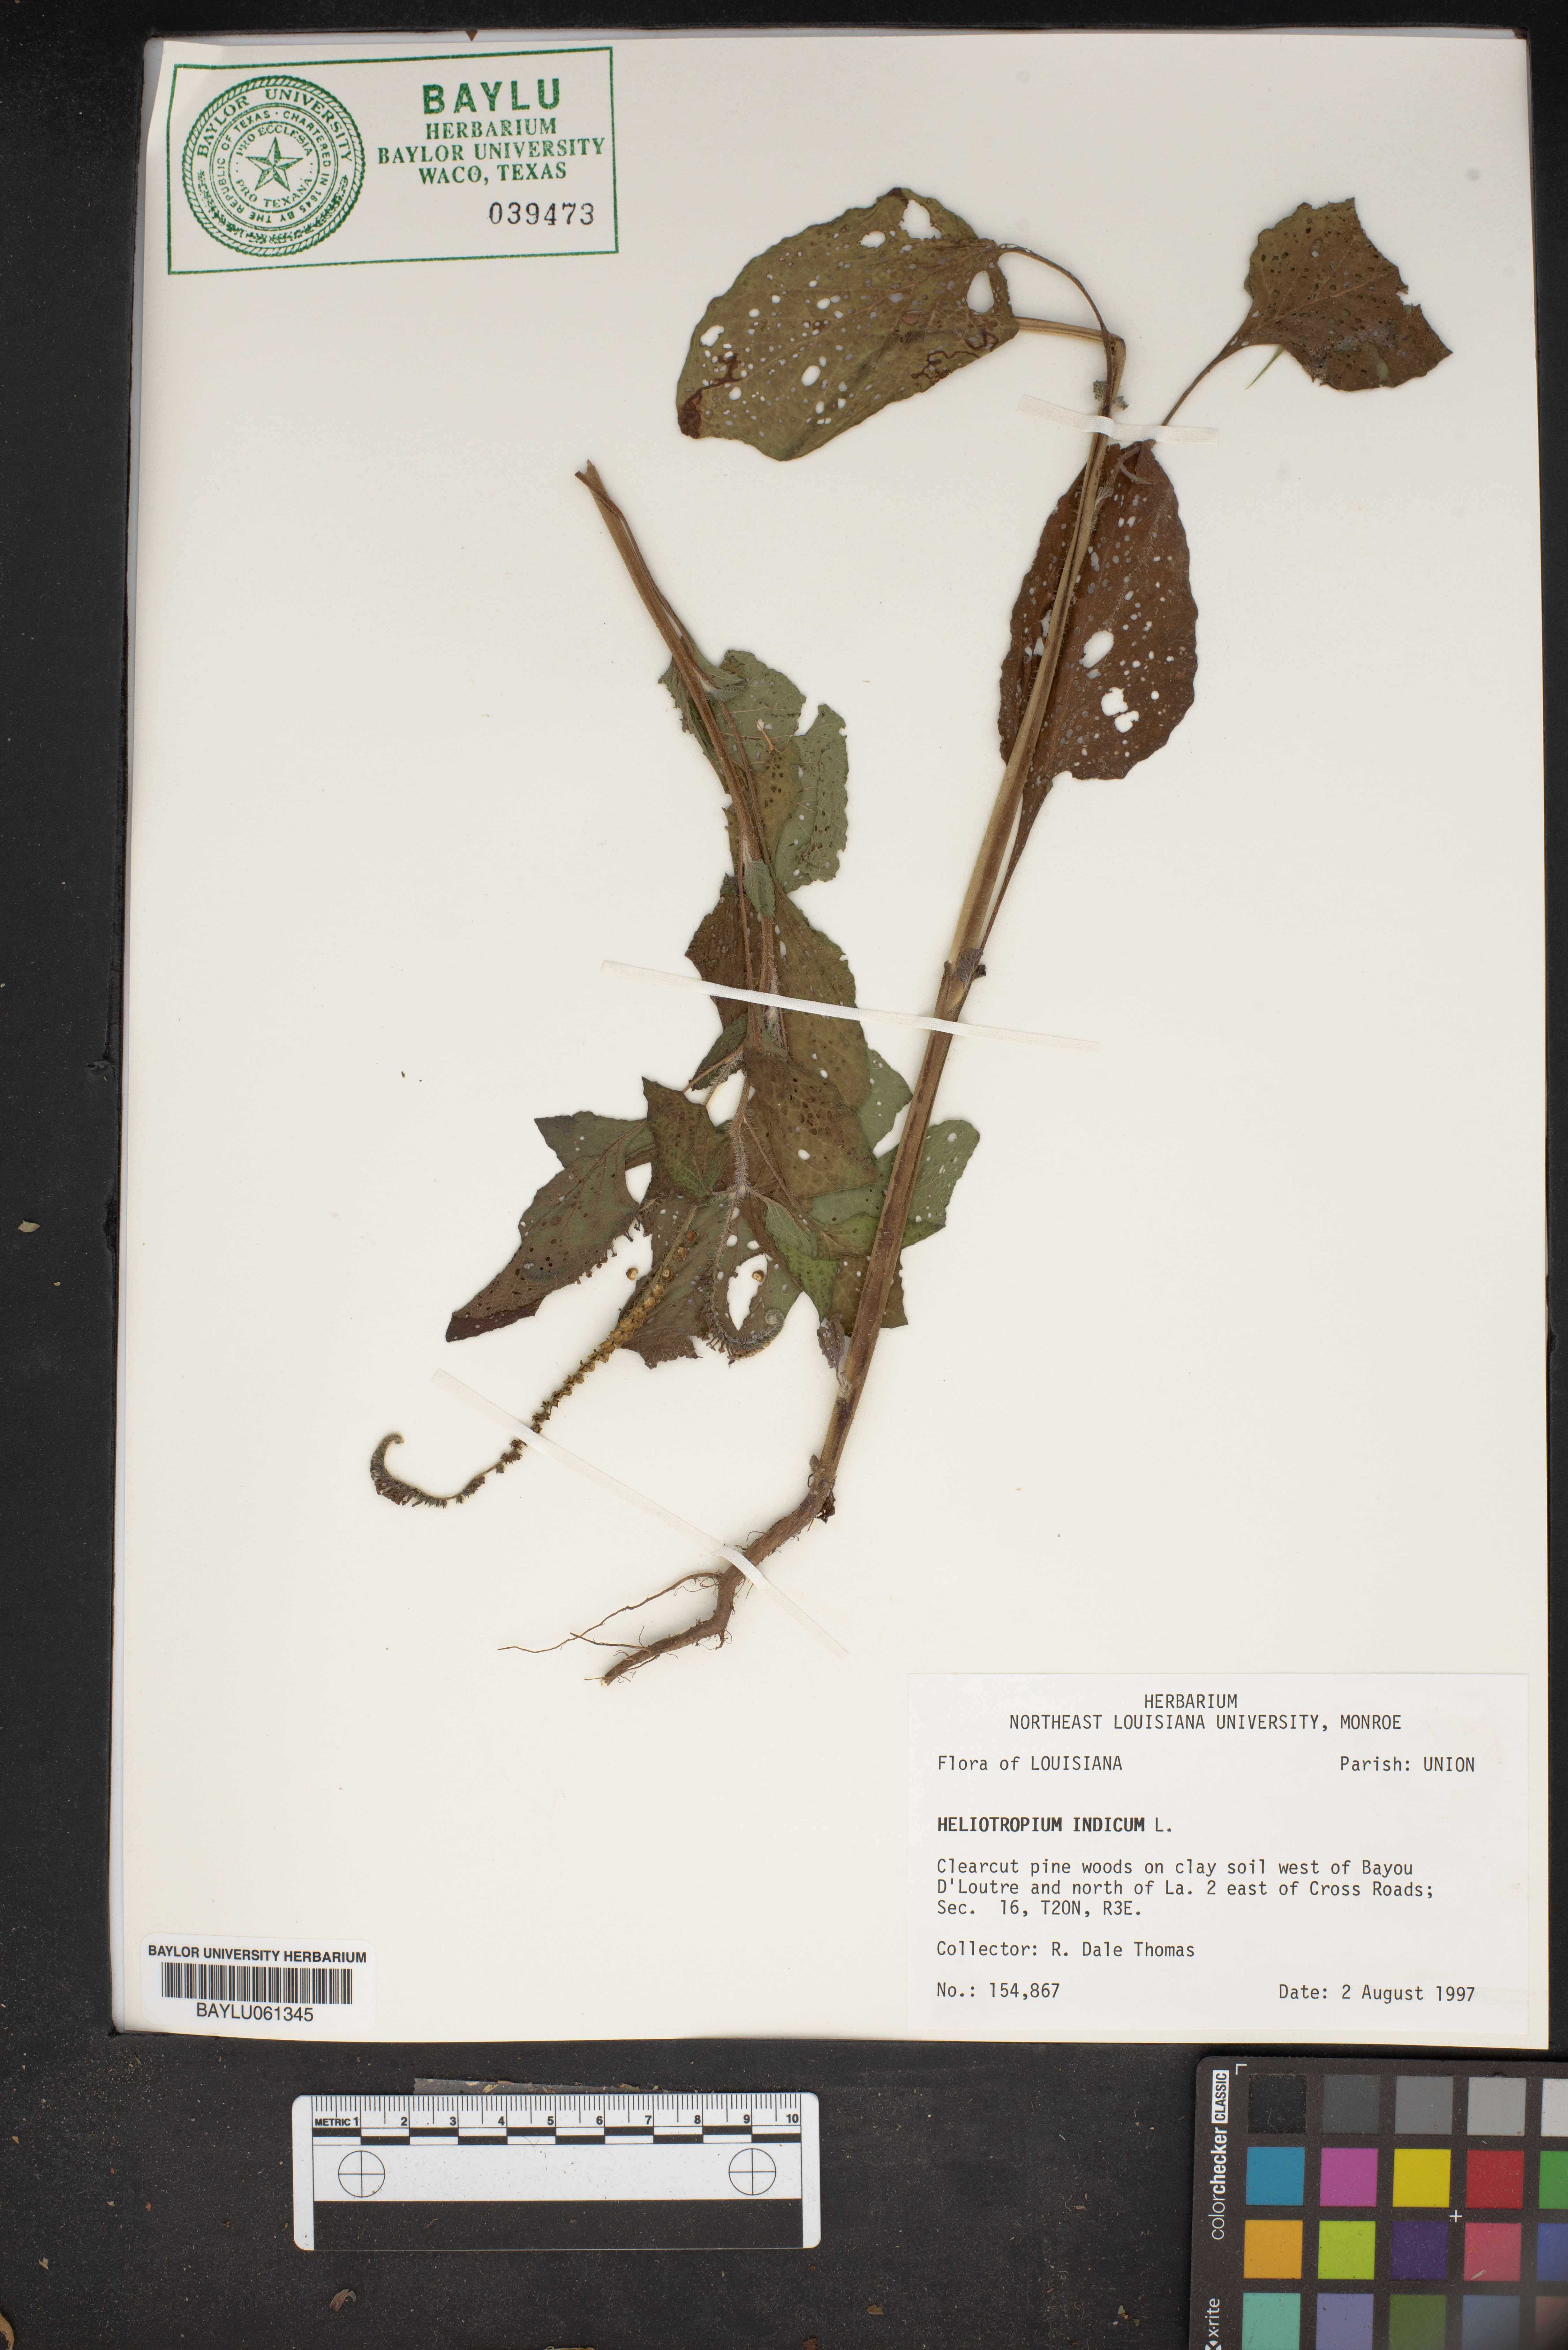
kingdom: Plantae
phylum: Tracheophyta
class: Magnoliopsida
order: Boraginales
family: Heliotropiaceae
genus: Heliotropium
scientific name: Heliotropium indicum
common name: Indian heliotrope
